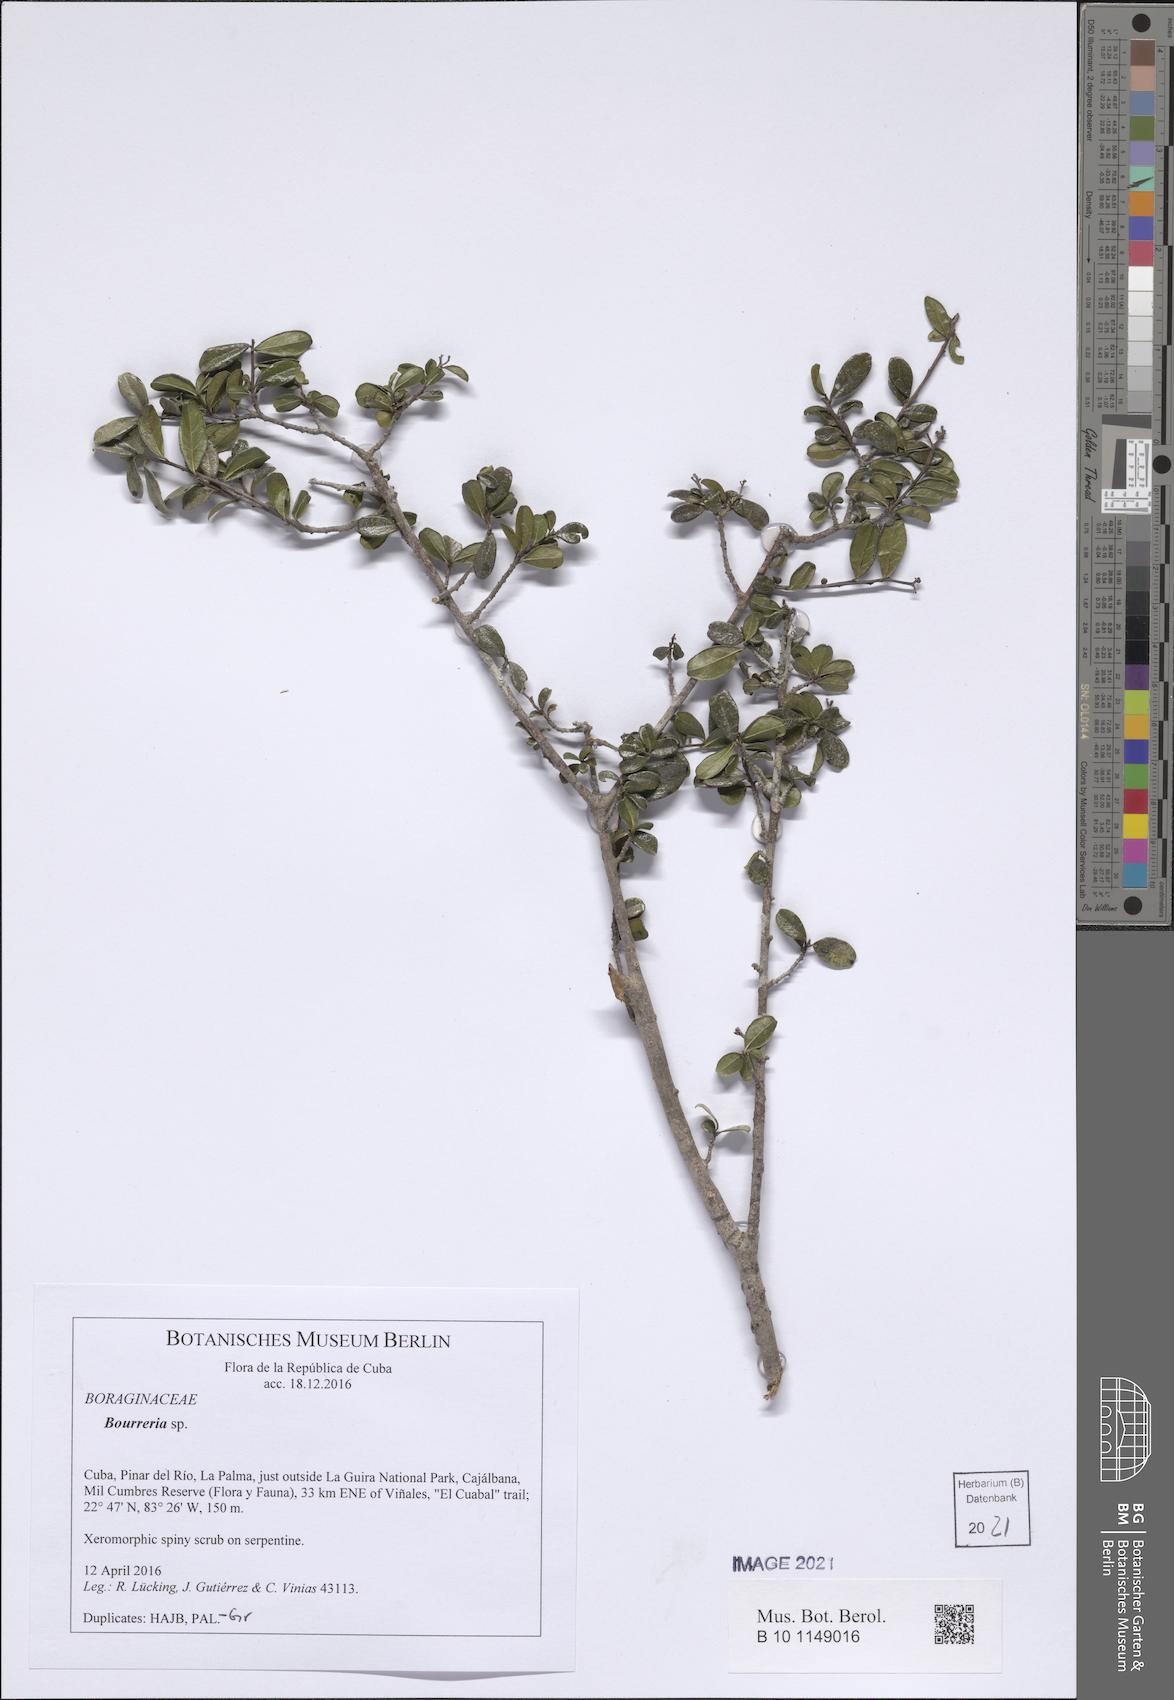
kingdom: Plantae
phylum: Tracheophyta
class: Magnoliopsida
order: Boraginales
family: Ehretiaceae
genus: Bourreria
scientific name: Bourreria virgata
